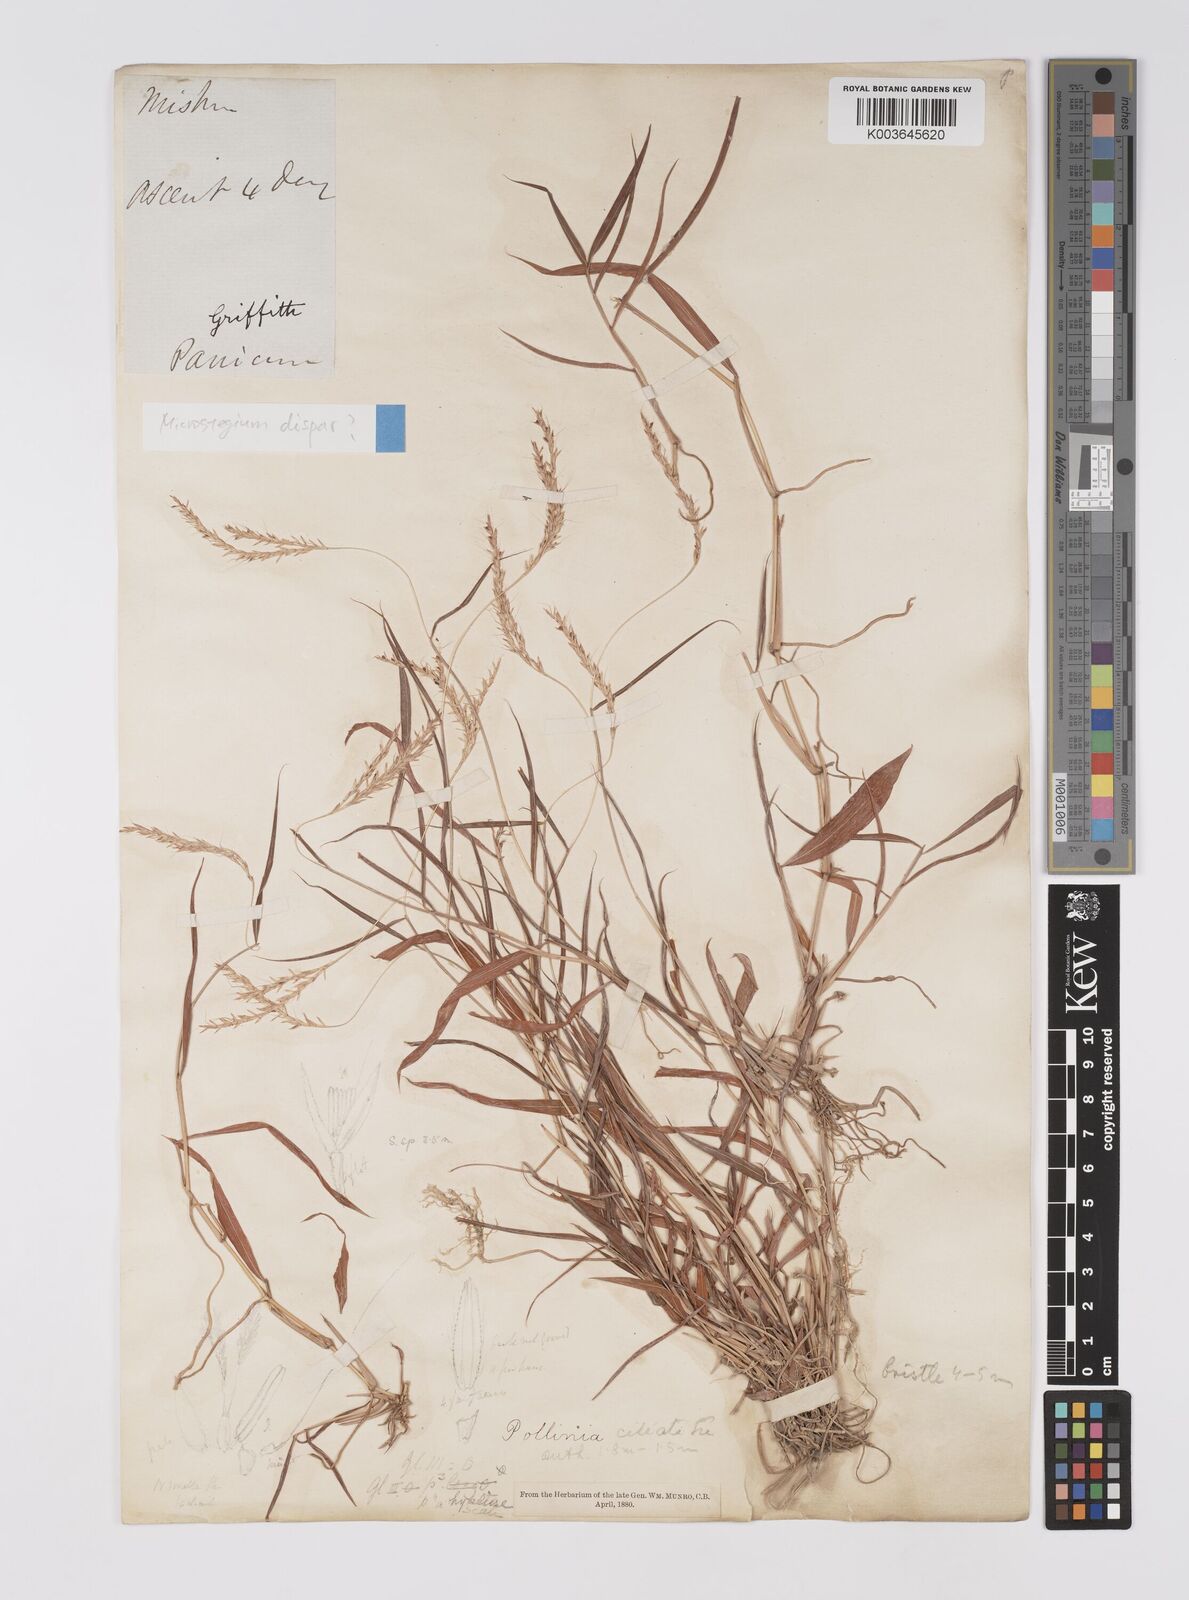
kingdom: Plantae
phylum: Tracheophyta
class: Liliopsida
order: Poales
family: Poaceae
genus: Microstegium
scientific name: Microstegium fasciculatum
